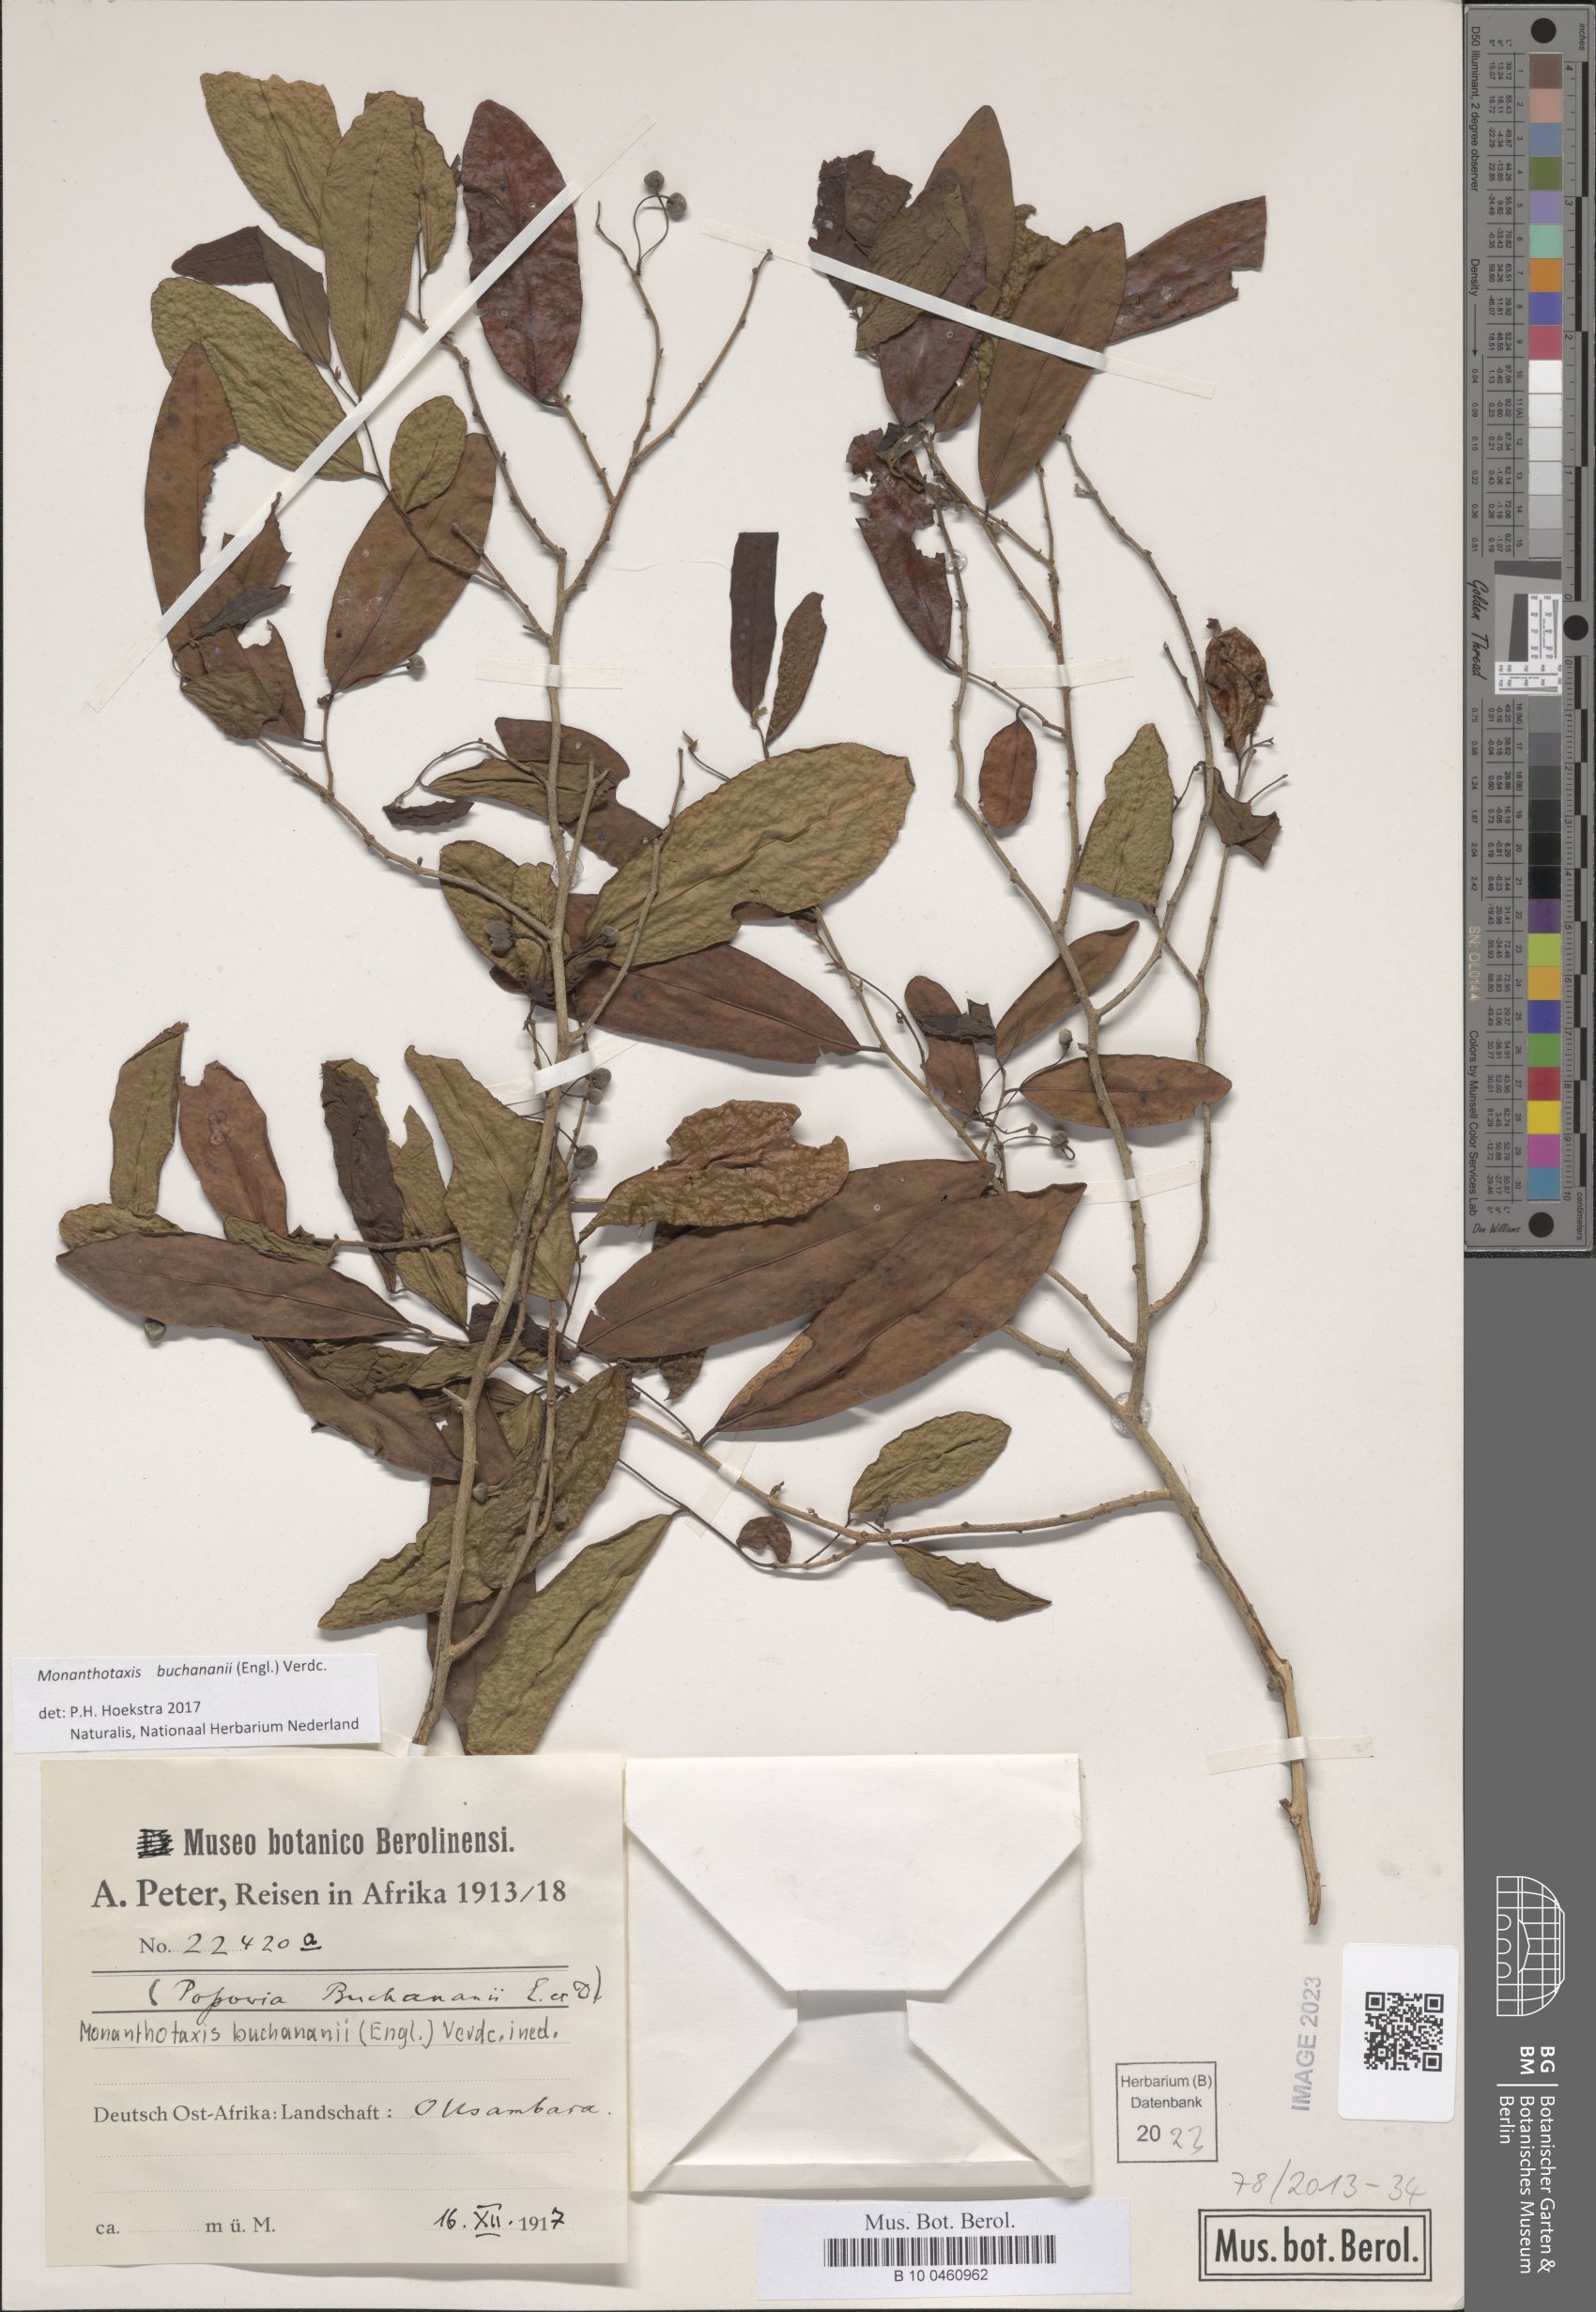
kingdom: Plantae
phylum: Tracheophyta
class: Magnoliopsida
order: Magnoliales
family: Annonaceae
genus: Monanthotaxis
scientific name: Monanthotaxis buchananii
